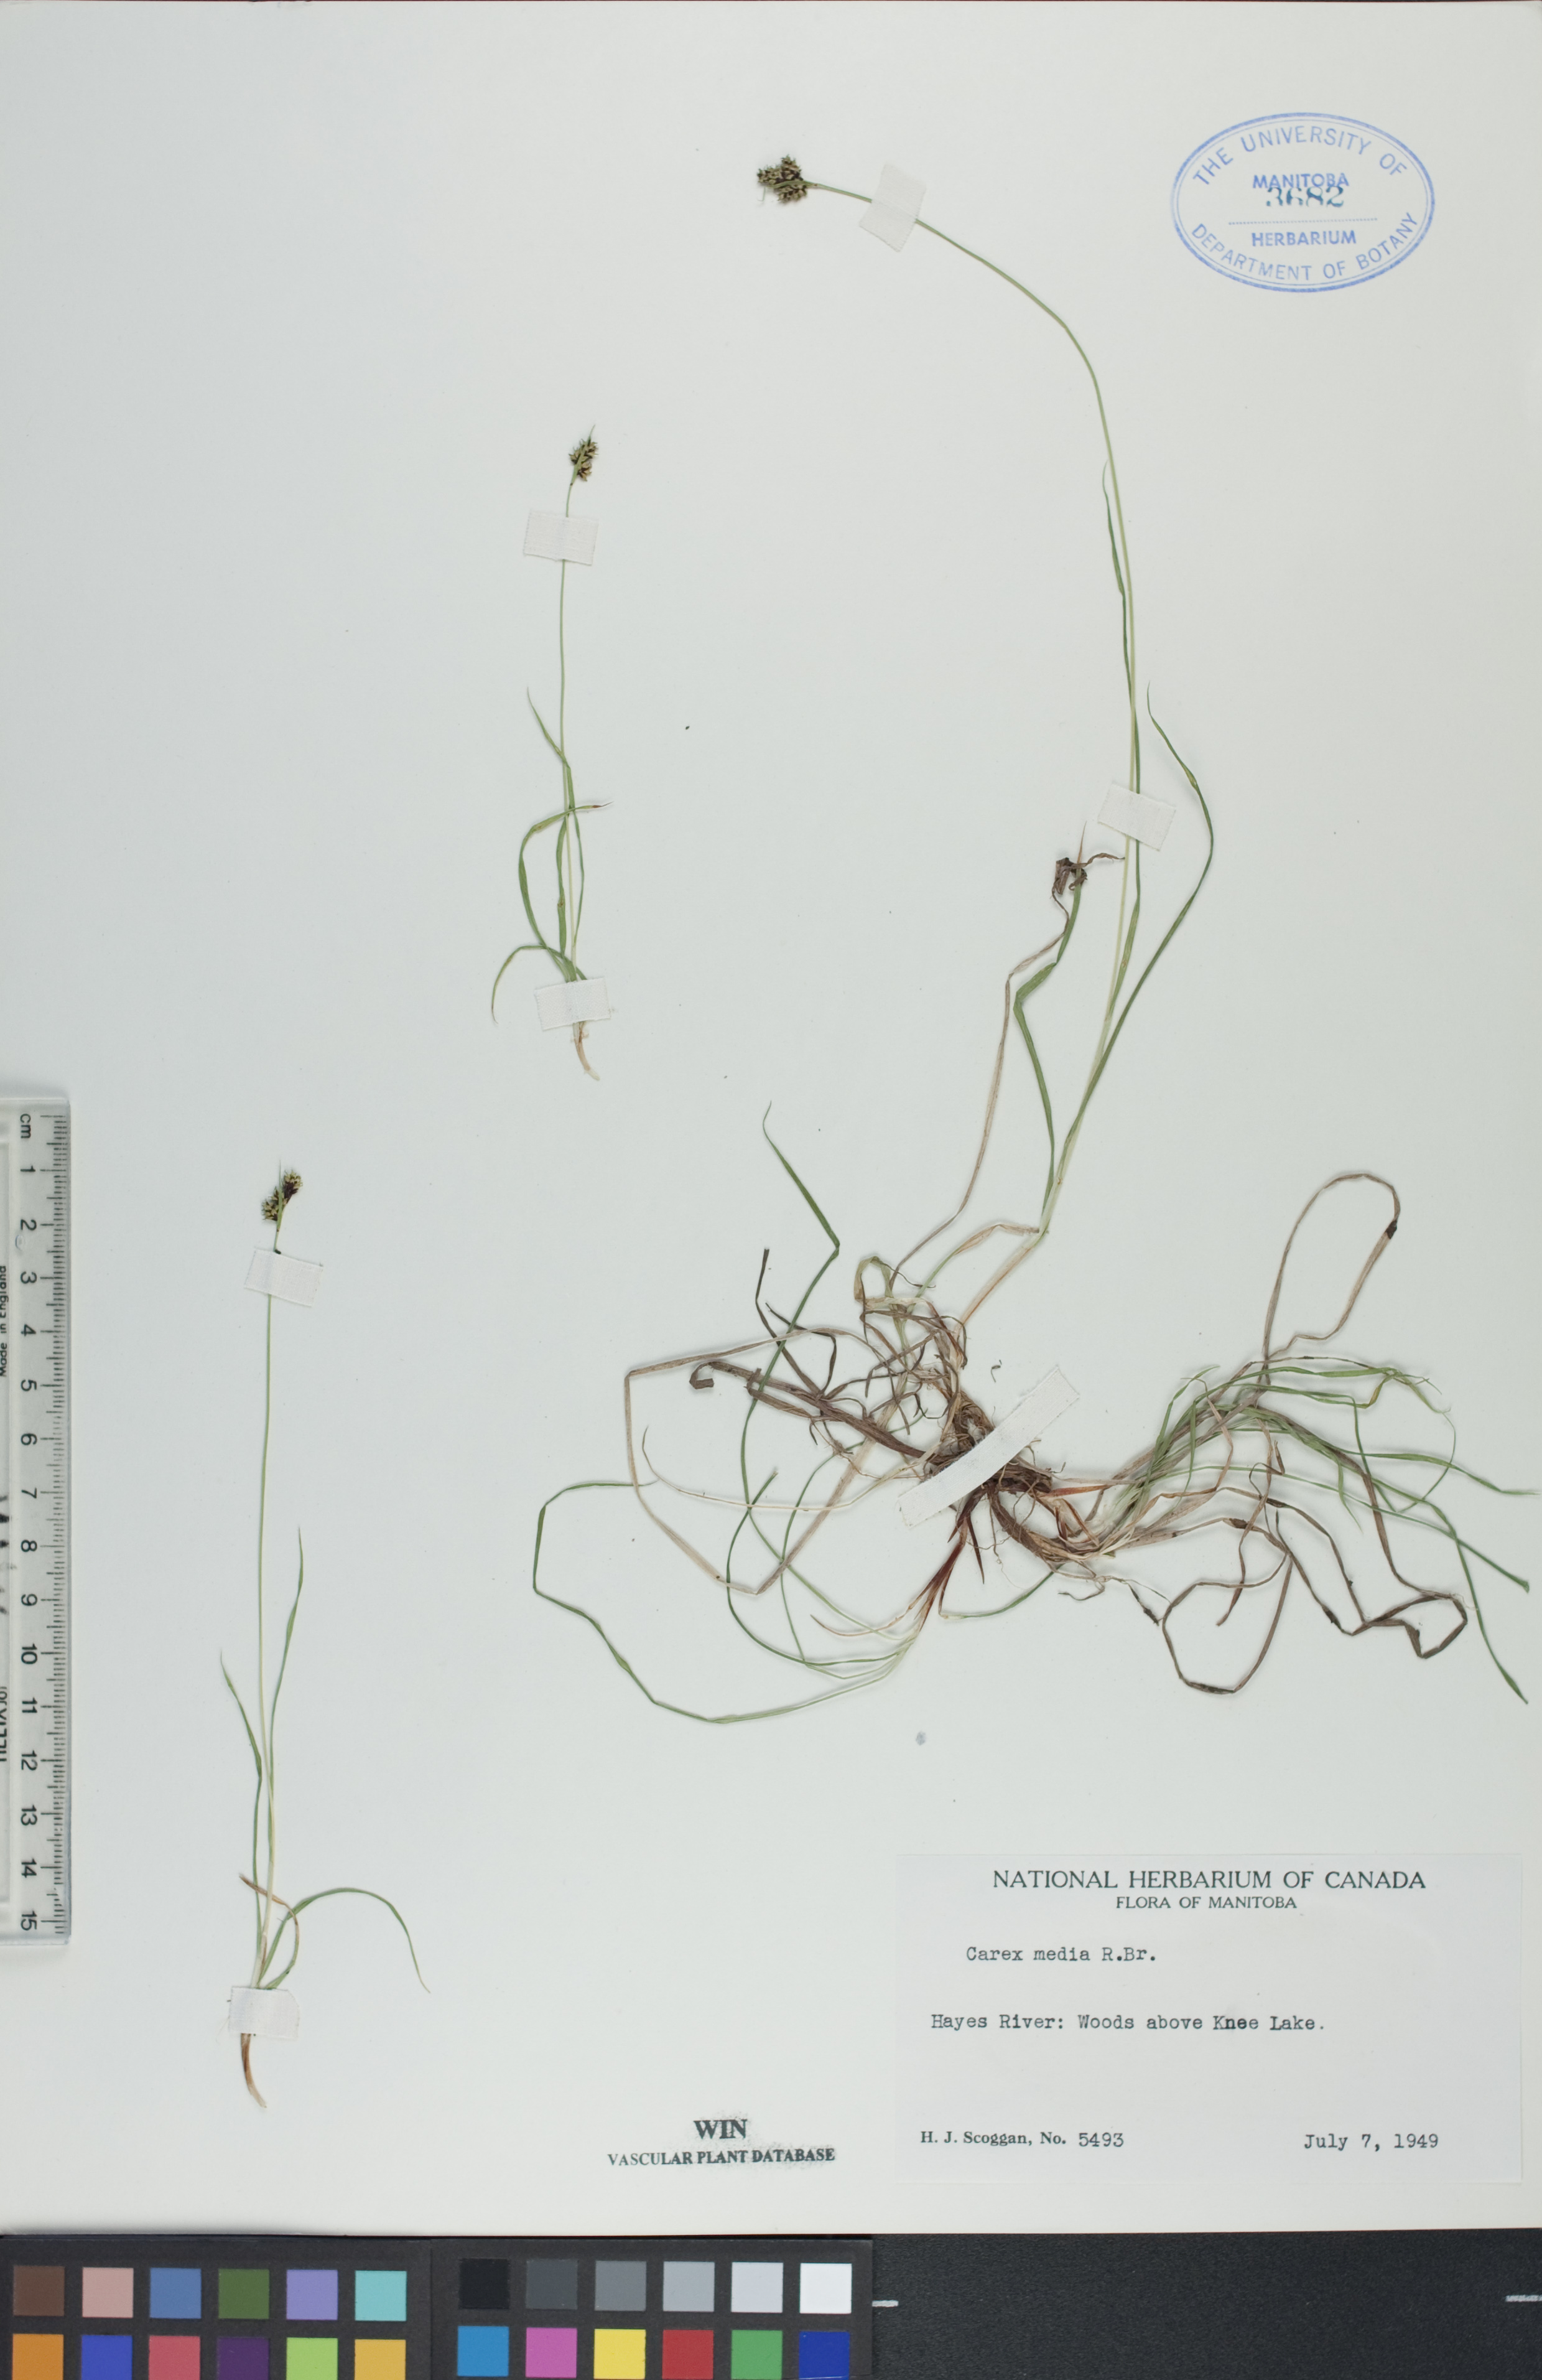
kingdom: Plantae
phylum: Tracheophyta
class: Liliopsida
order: Poales
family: Cyperaceae
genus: Carex
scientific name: Carex media
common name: Alpine sedge
